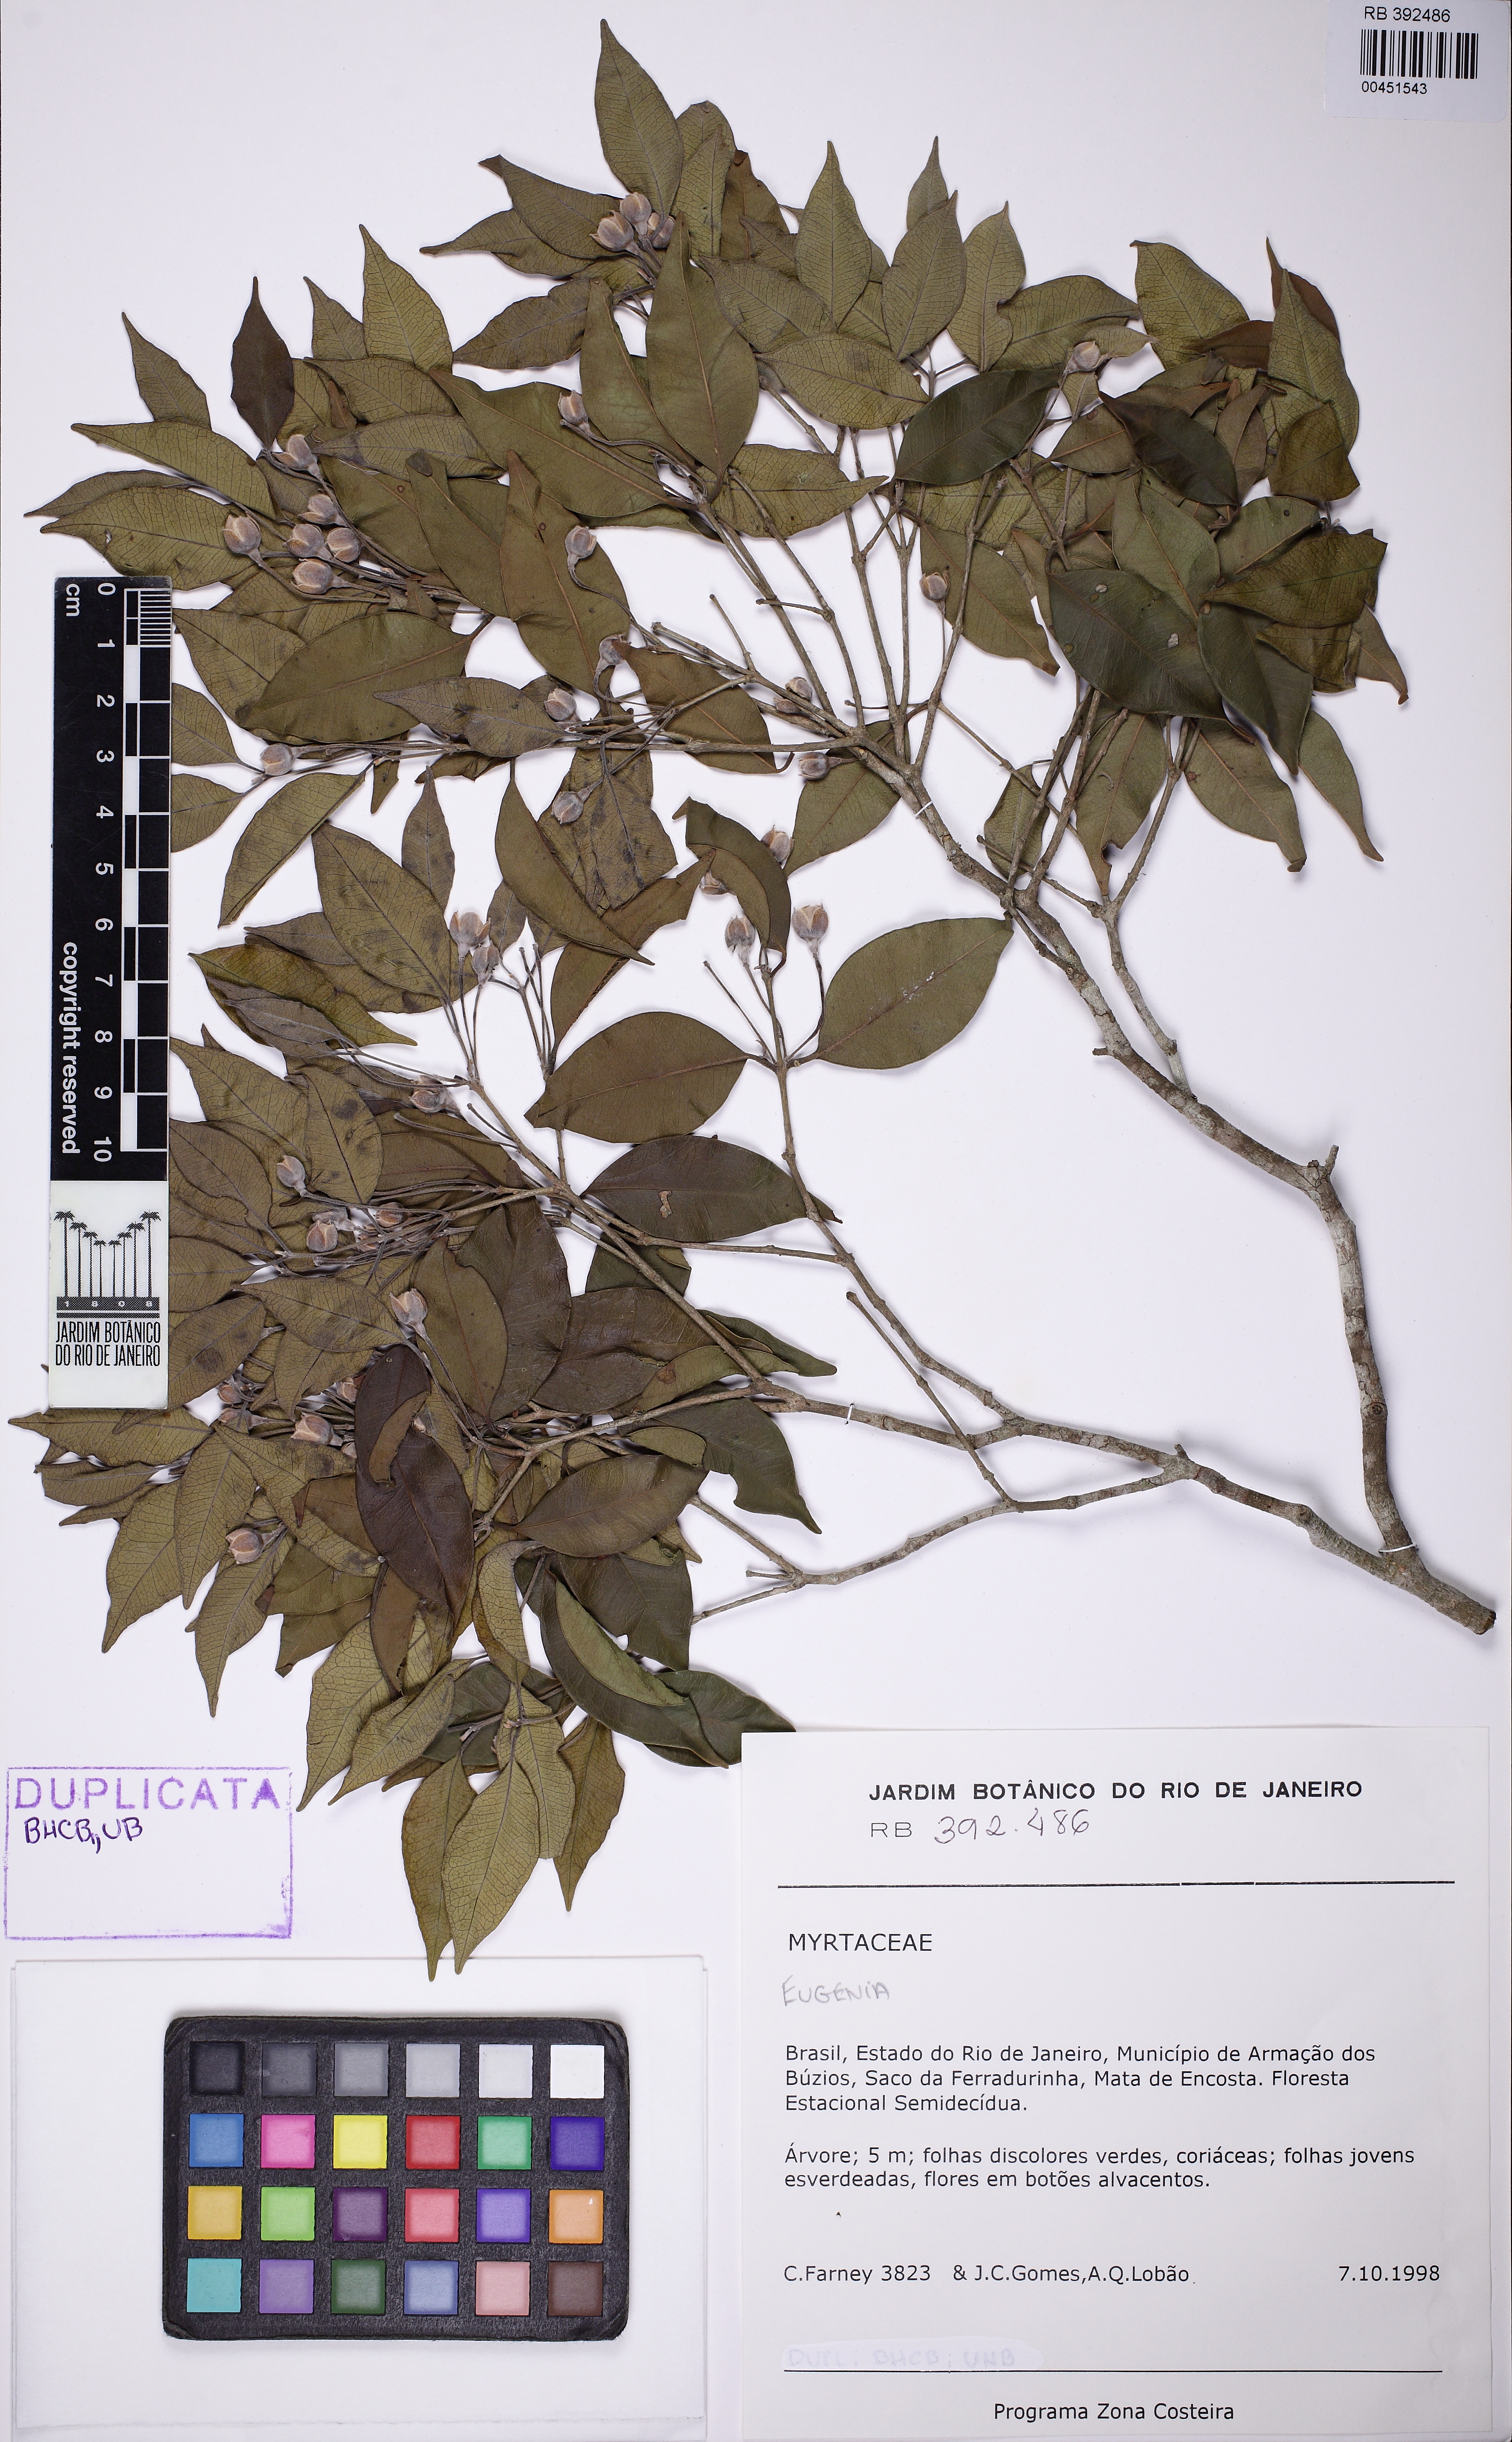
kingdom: Plantae
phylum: Tracheophyta
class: Magnoliopsida
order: Myrtales
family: Myrtaceae
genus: Eugenia
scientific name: Eugenia farneyi
